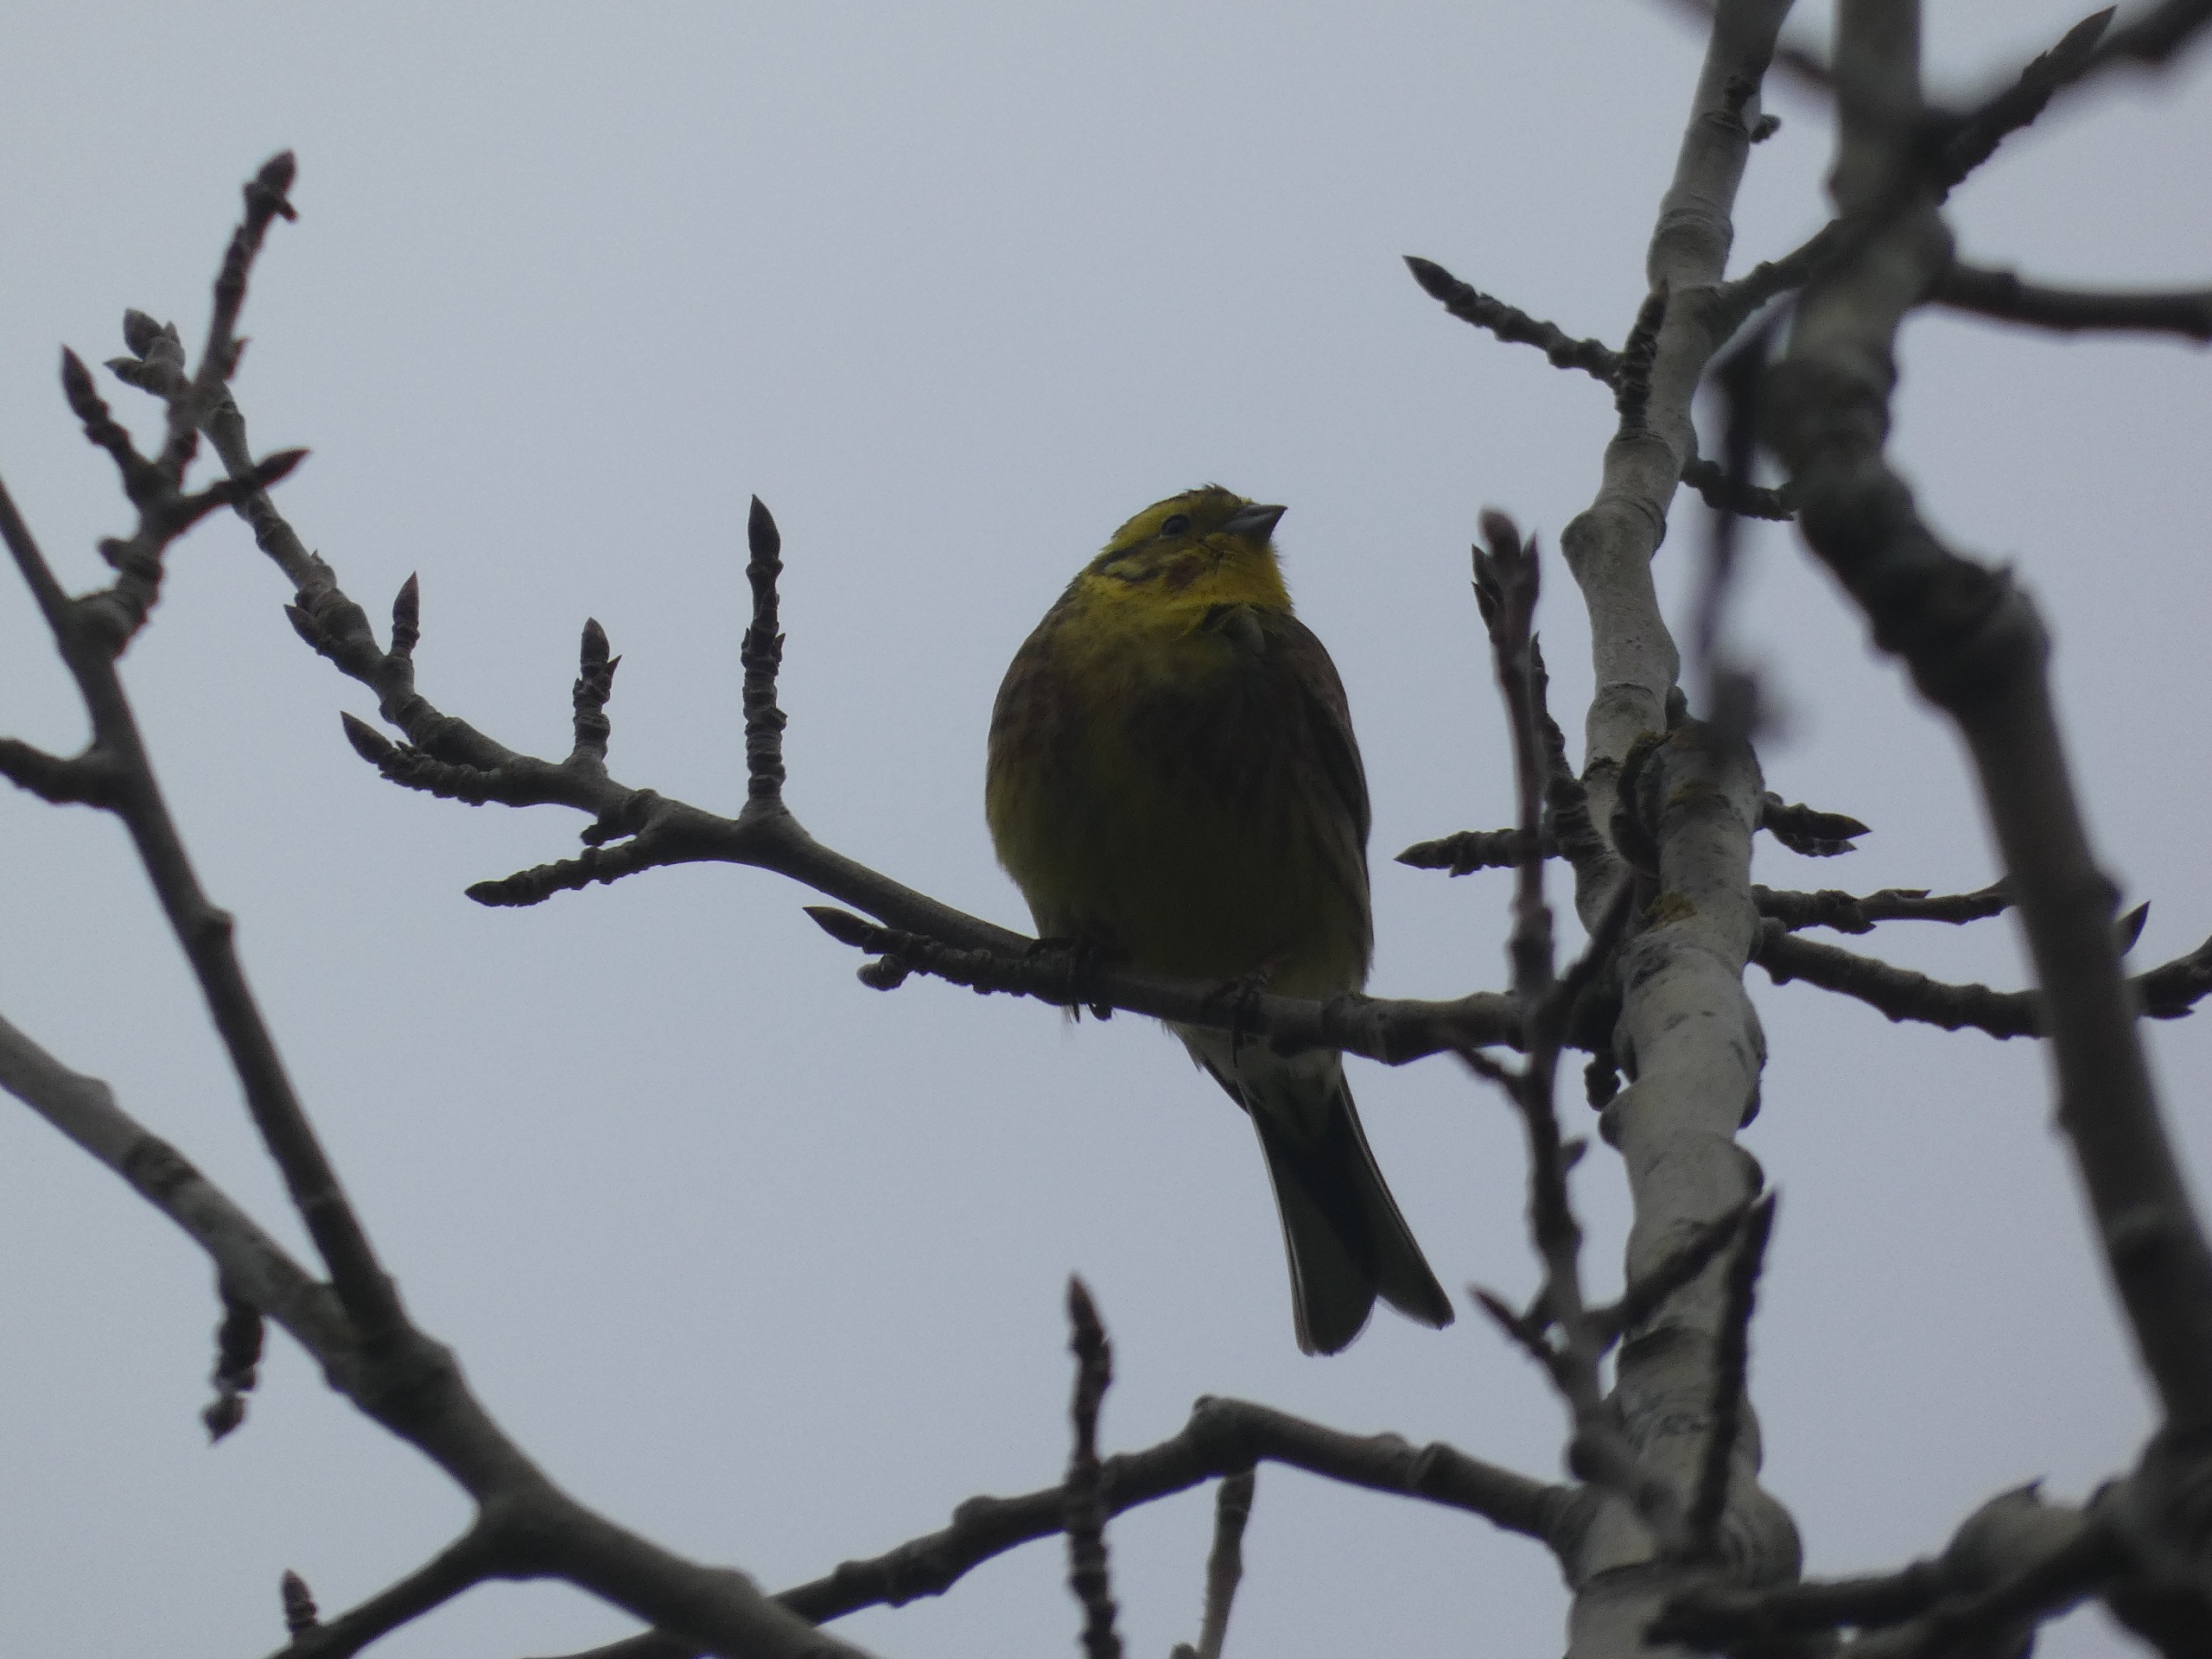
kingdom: Animalia
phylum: Chordata
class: Aves
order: Passeriformes
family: Emberizidae
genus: Emberiza
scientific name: Emberiza citrinella
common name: Gulspurv
